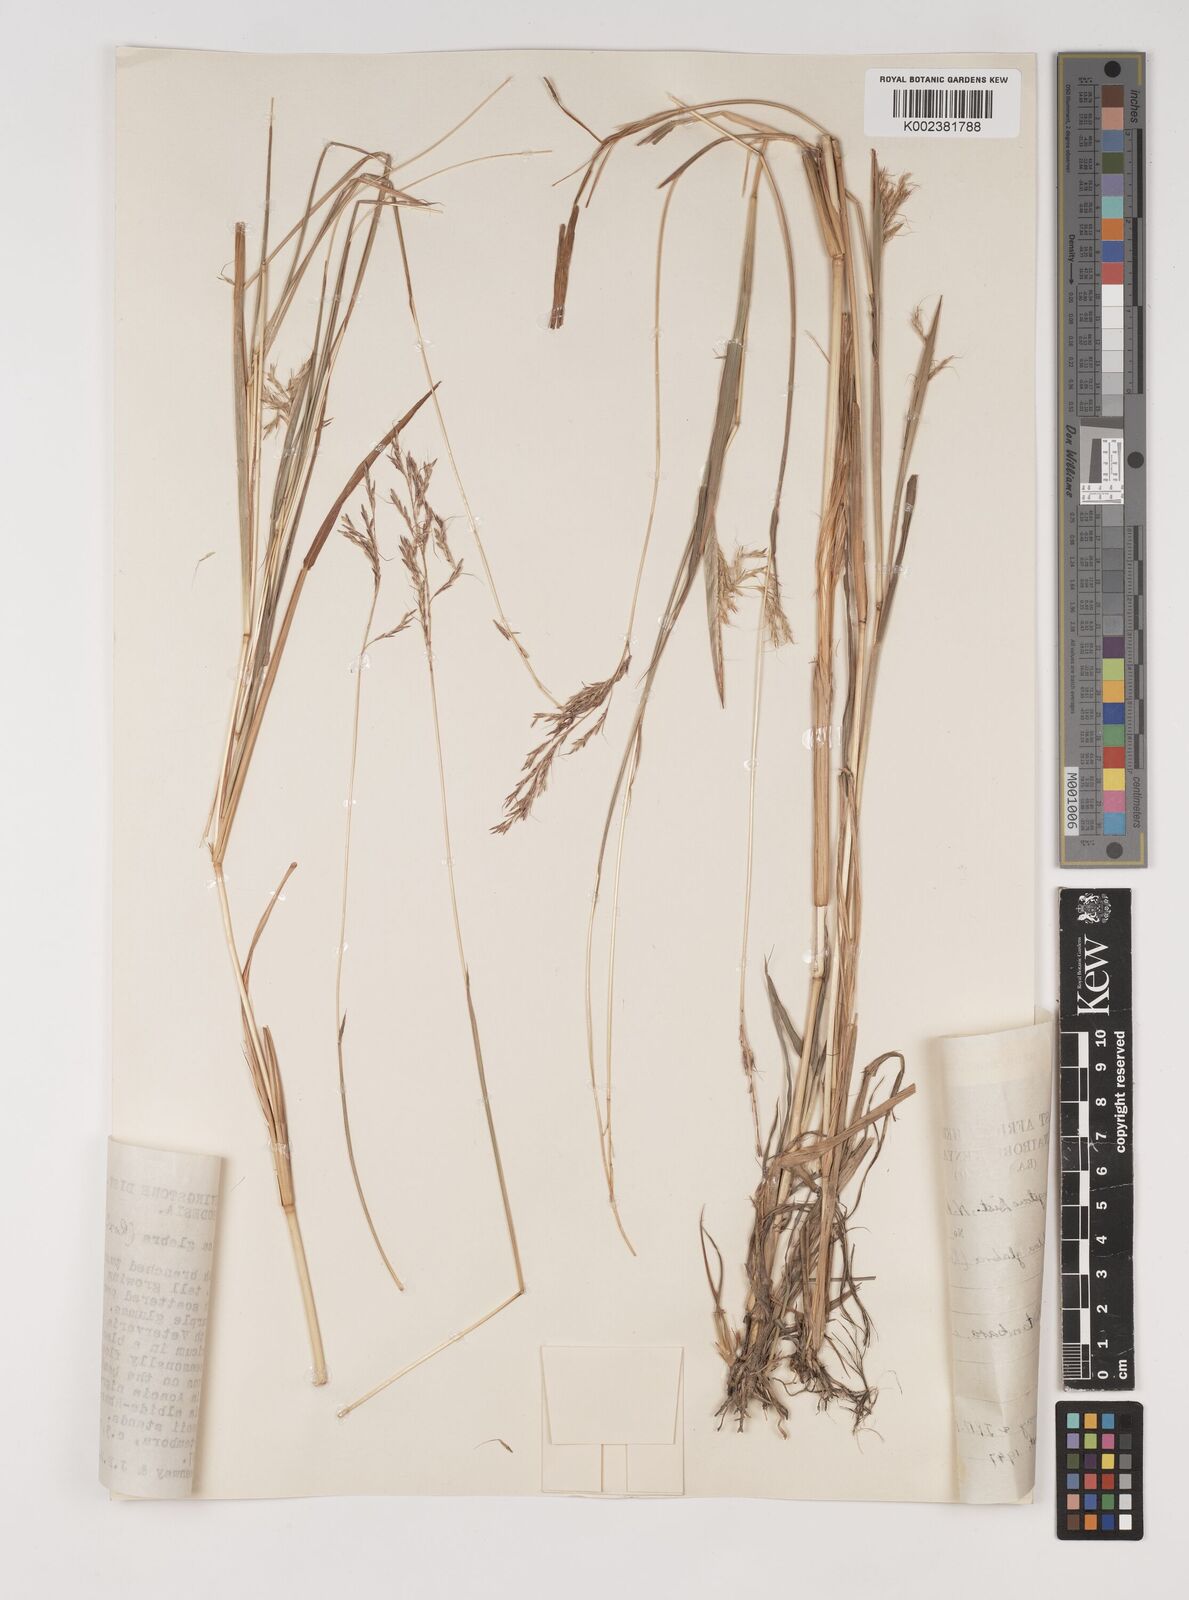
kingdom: Plantae
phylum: Tracheophyta
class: Liliopsida
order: Poales
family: Poaceae
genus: Bothriochloa
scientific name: Bothriochloa bladhii
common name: Caucasian bluestem
